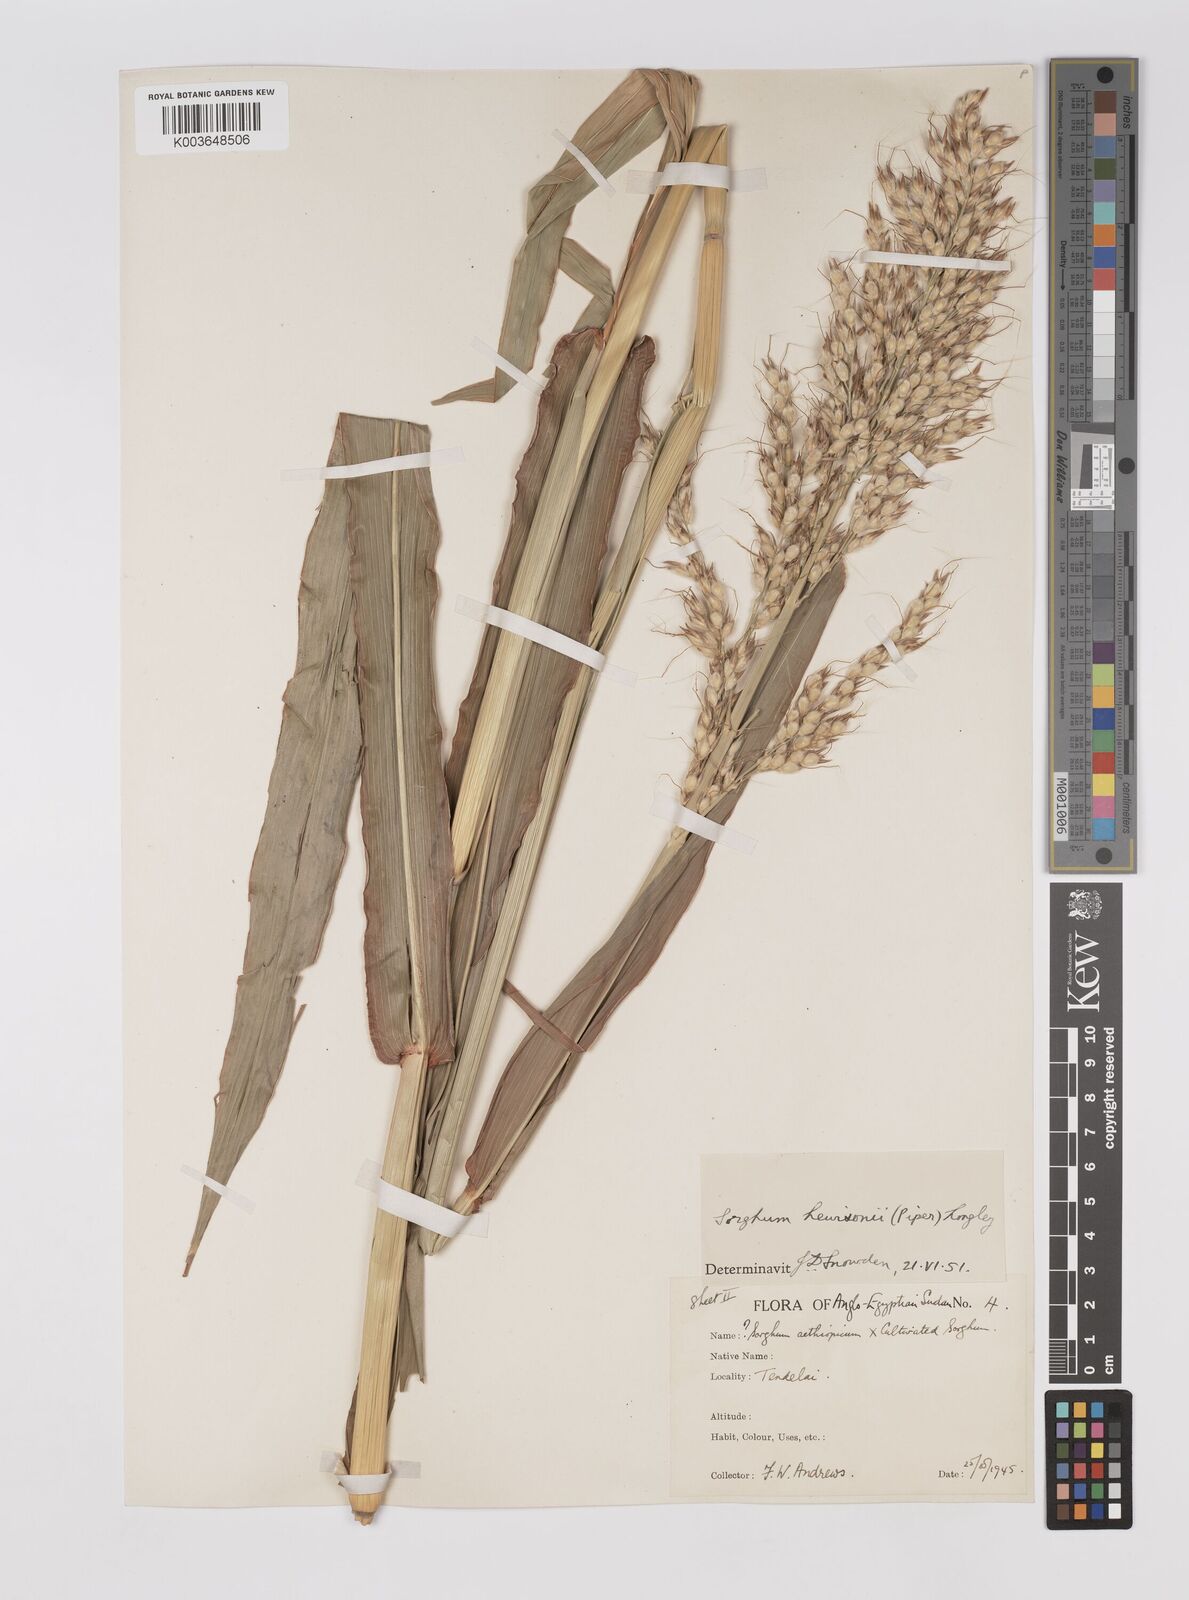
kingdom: Plantae
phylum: Tracheophyta
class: Liliopsida
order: Poales
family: Poaceae
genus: Sorghum
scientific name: Sorghum drummondii
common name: Sudangrass
